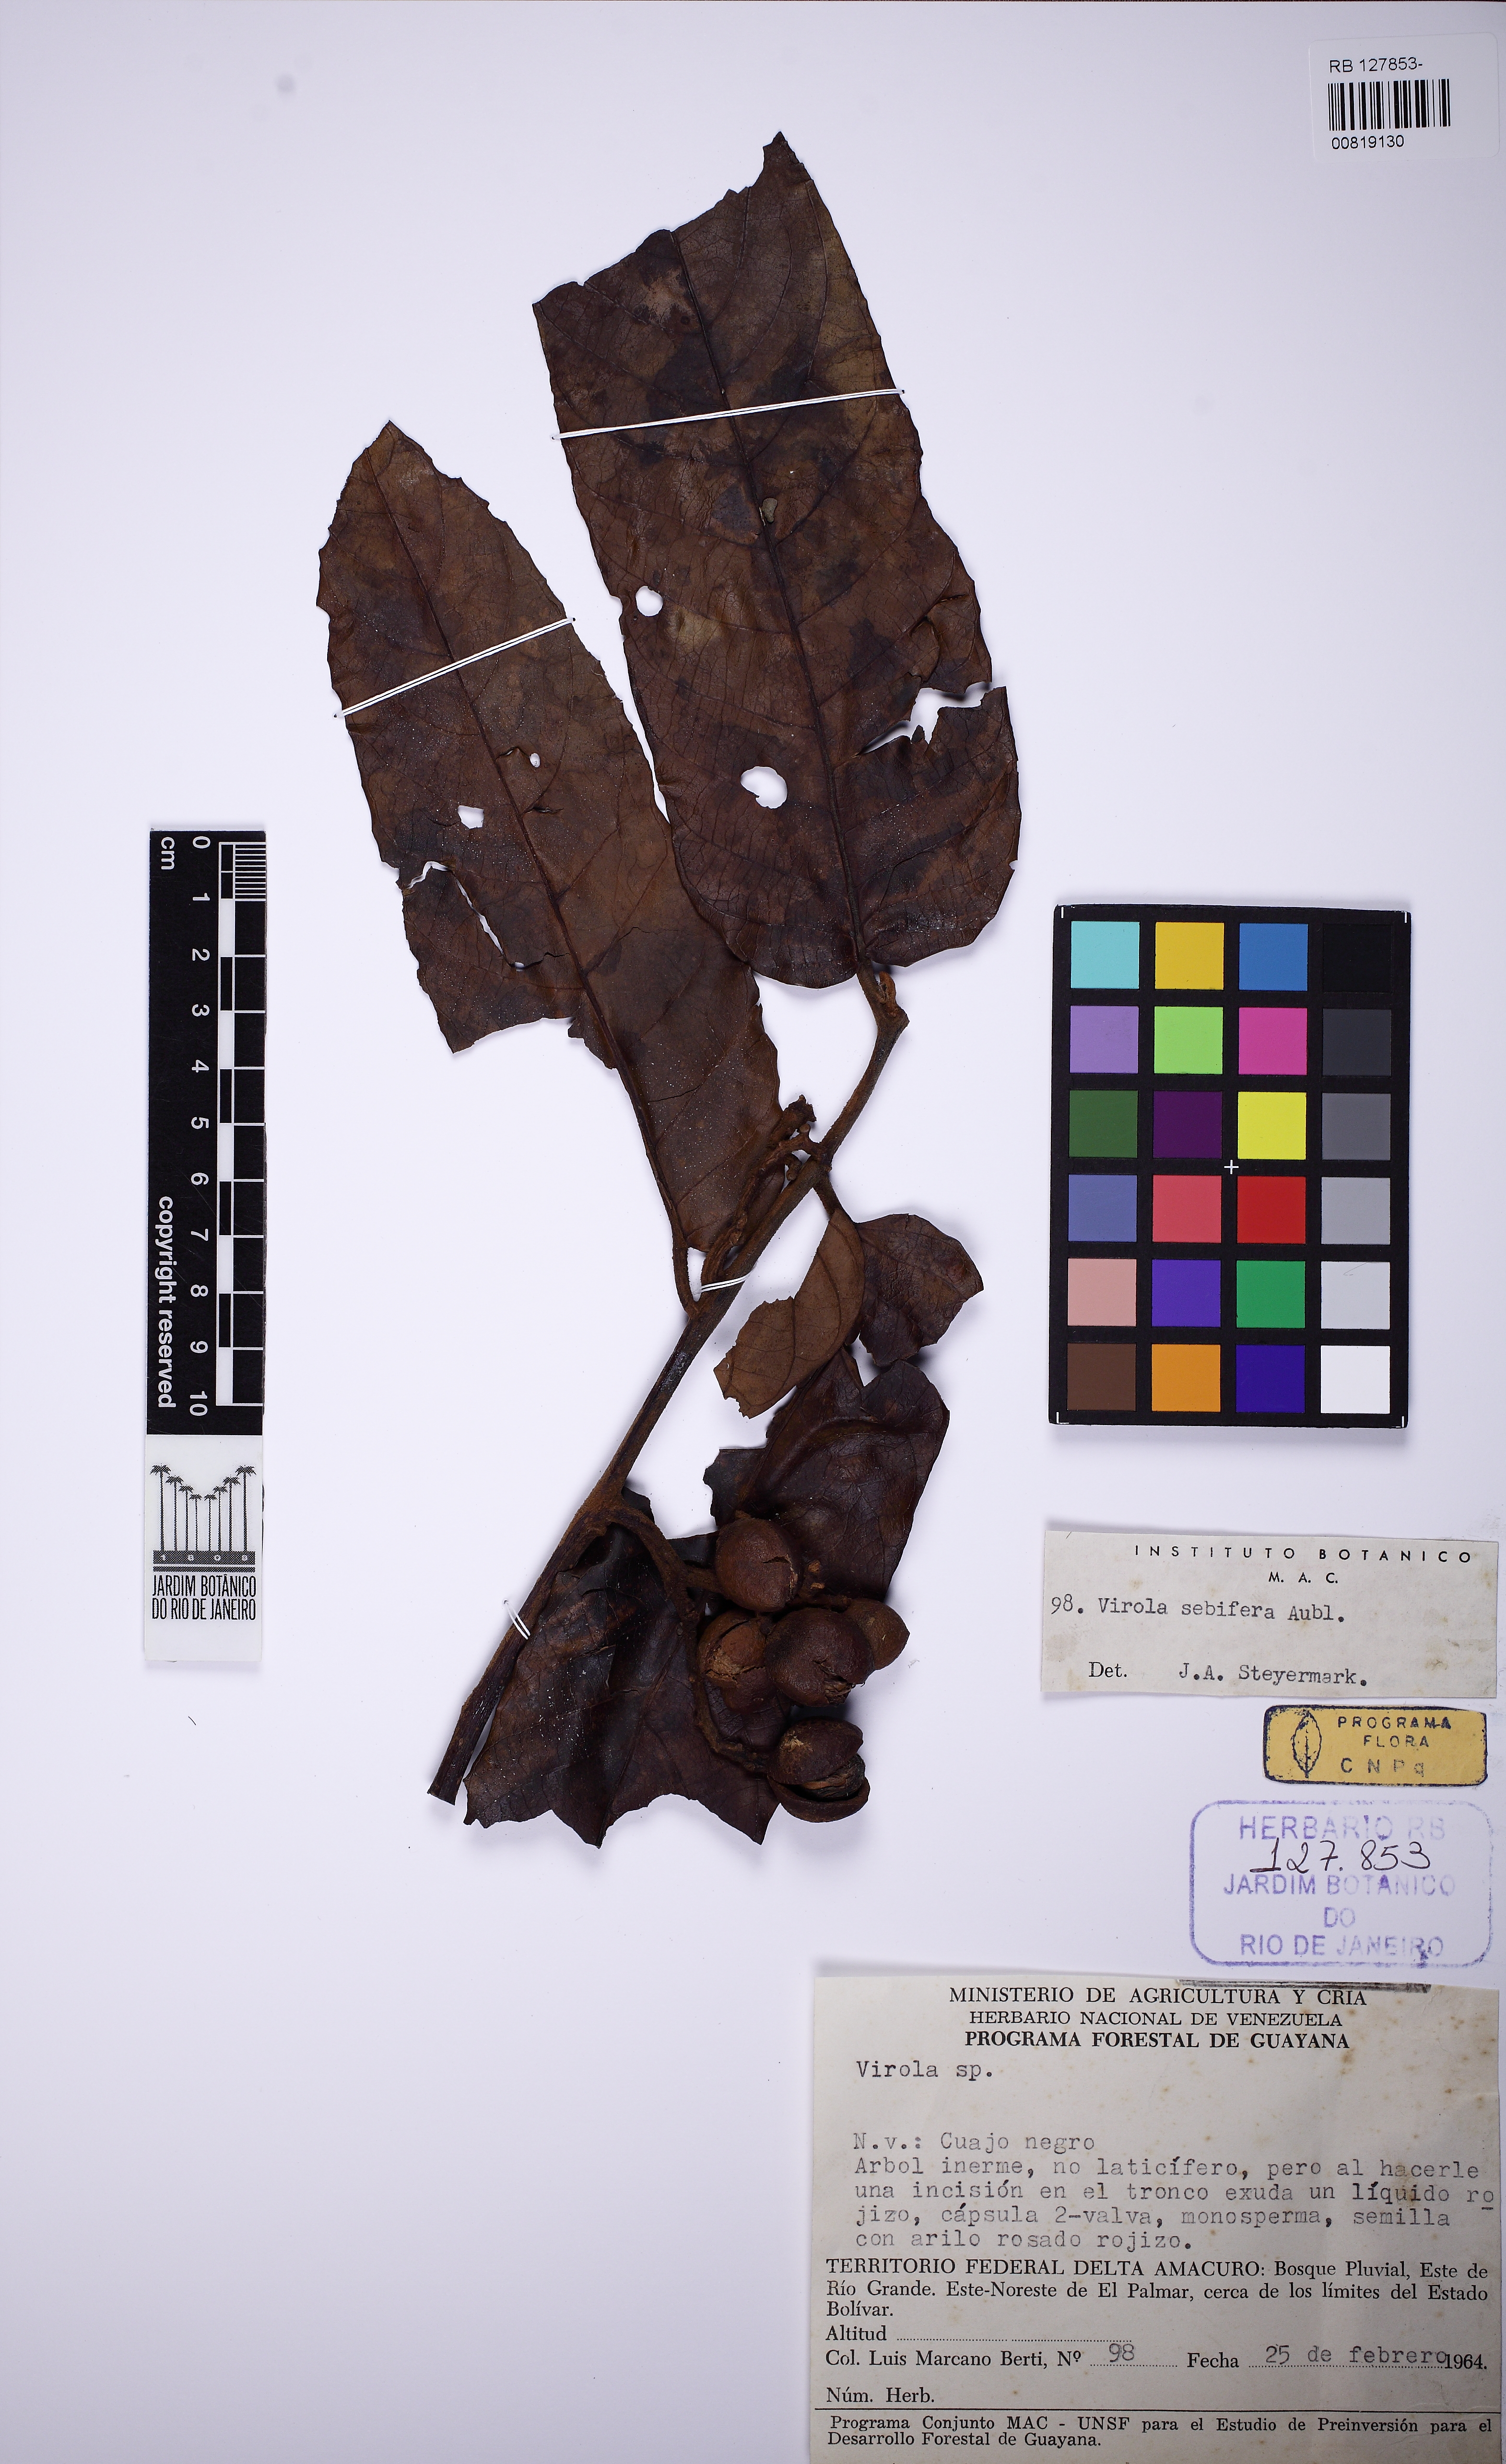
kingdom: Plantae
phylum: Tracheophyta
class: Magnoliopsida
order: Magnoliales
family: Myristicaceae
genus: Virola
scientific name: Virola sebifera
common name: Red ucuuba
